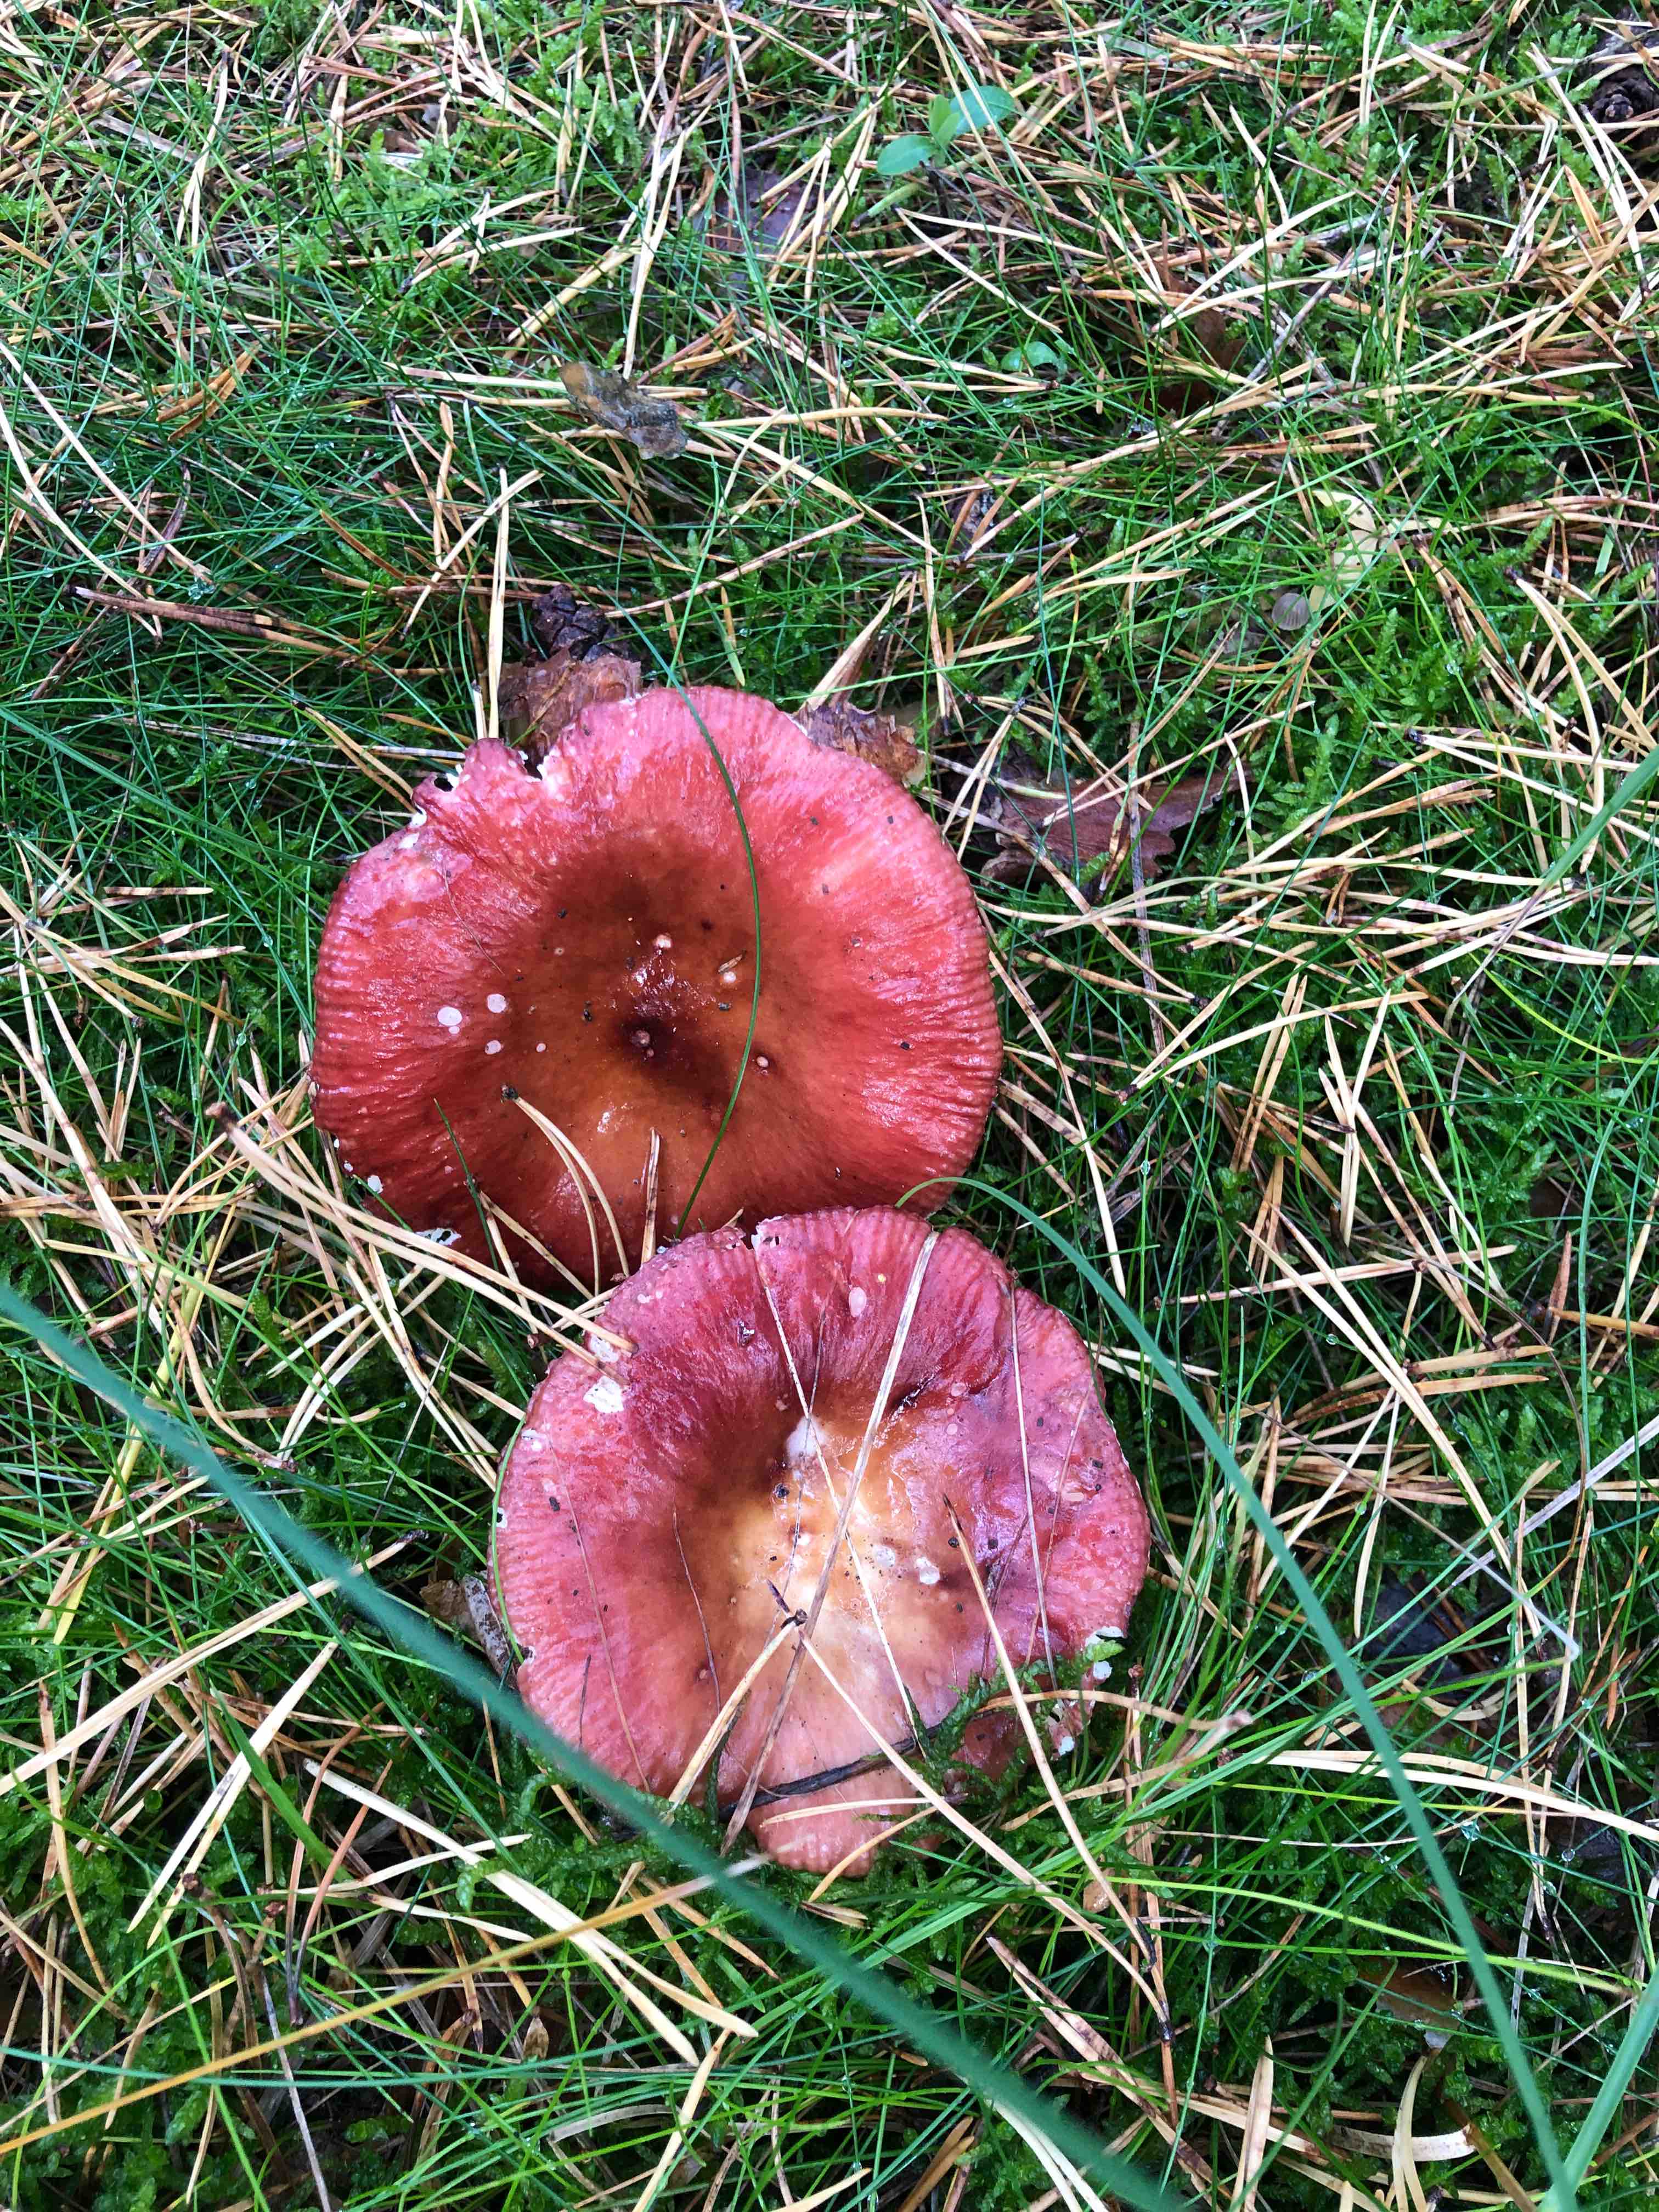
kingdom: Fungi
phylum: Basidiomycota
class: Agaricomycetes
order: Russulales
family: Russulaceae
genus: Russula
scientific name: Russula
